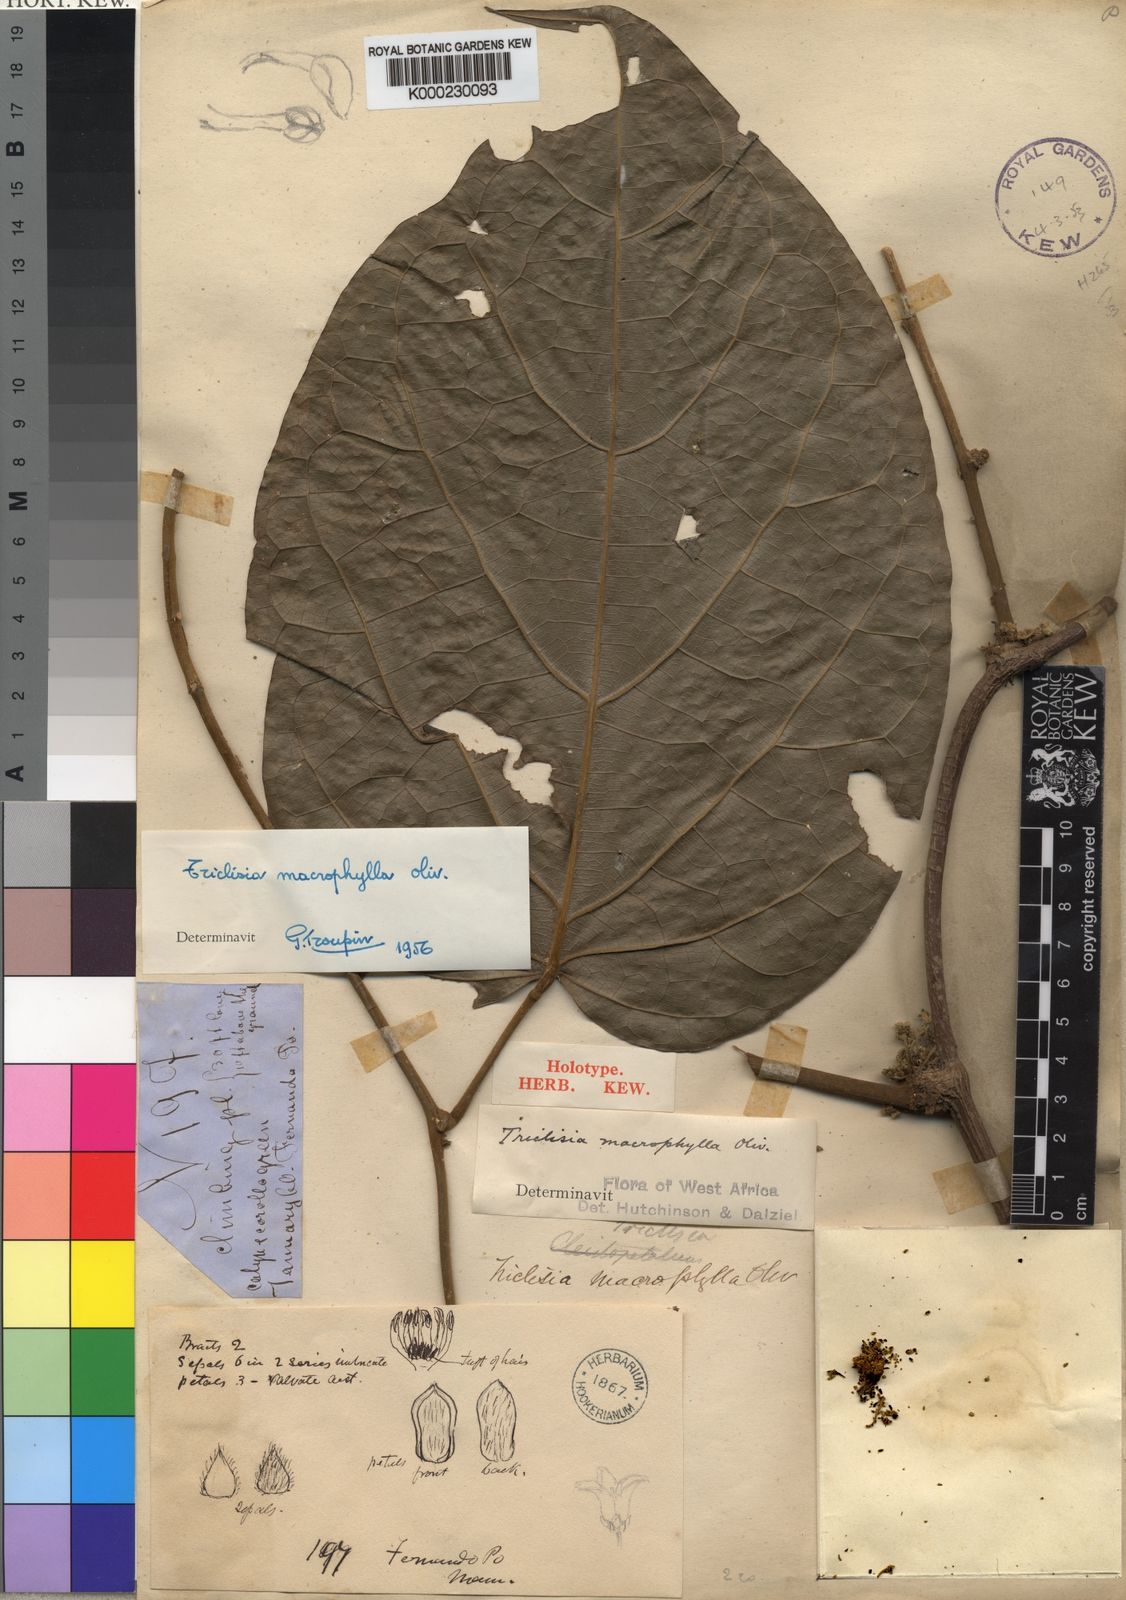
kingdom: Plantae
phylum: Tracheophyta
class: Magnoliopsida
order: Ranunculales
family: Menispermaceae
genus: Triclisia
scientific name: Triclisia macrophylla
